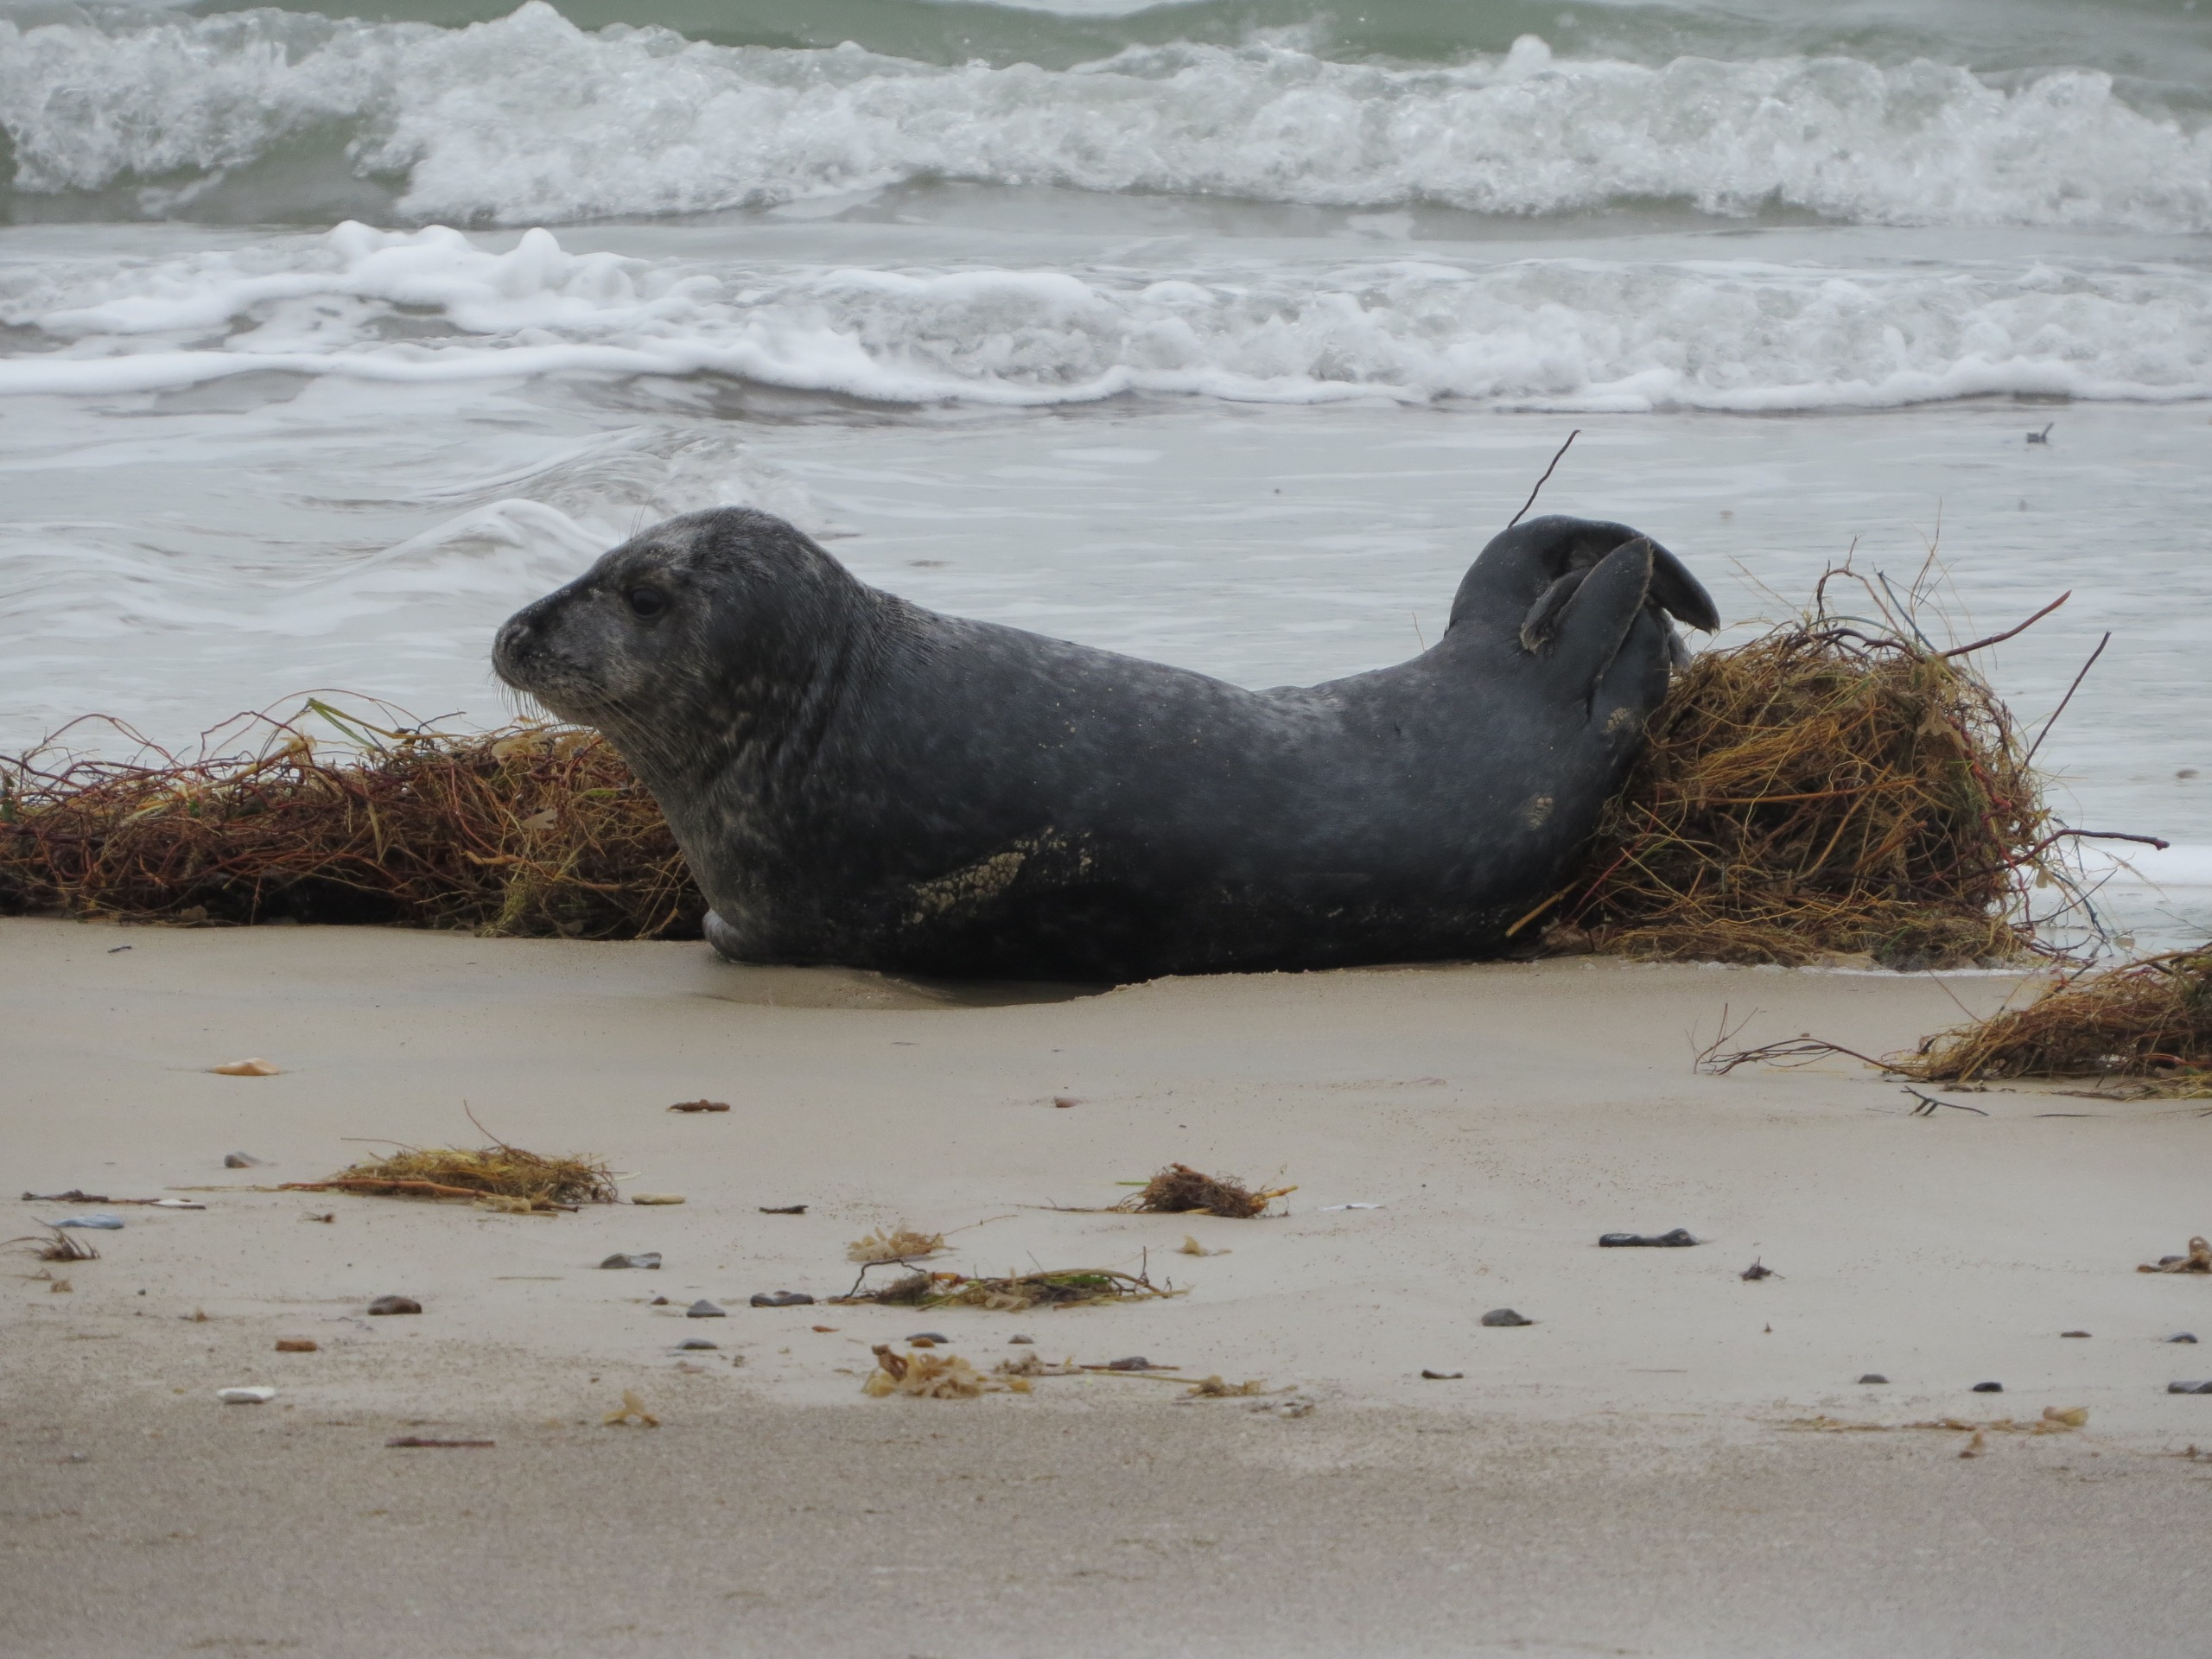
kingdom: Animalia
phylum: Chordata
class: Mammalia
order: Carnivora
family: Phocidae
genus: Halichoerus
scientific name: Halichoerus grypus
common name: Gråsæl
